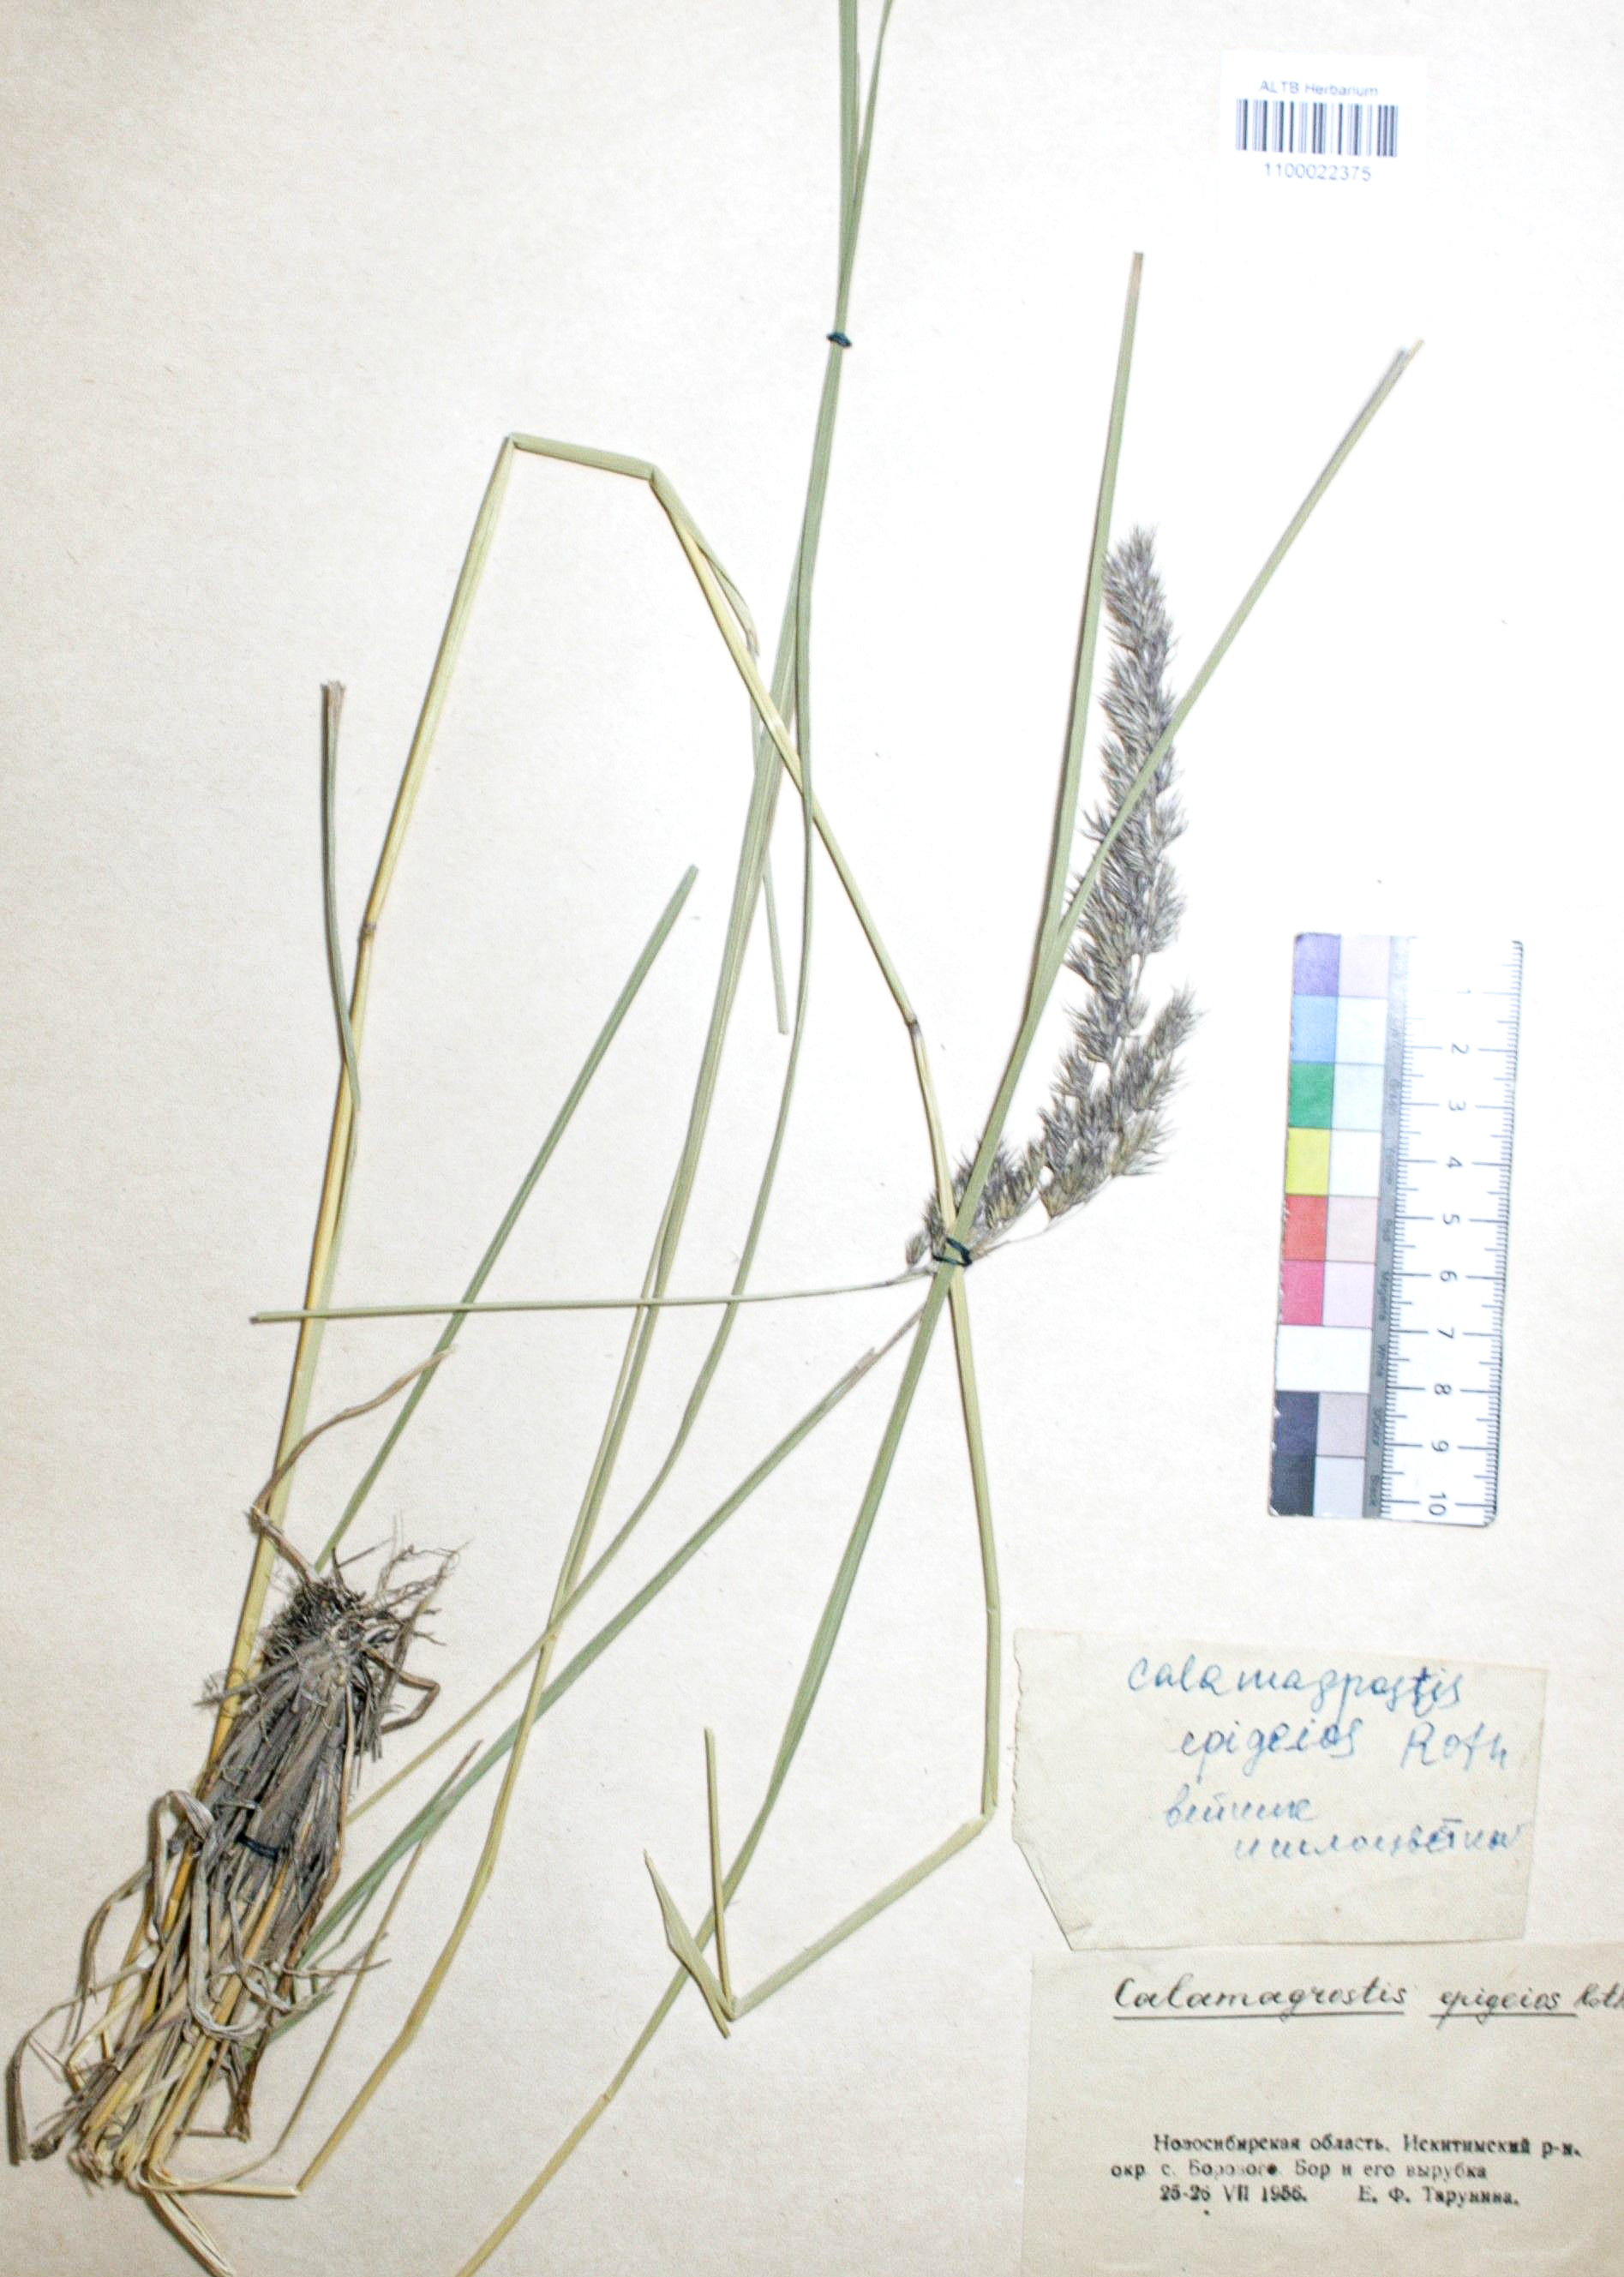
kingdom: Plantae
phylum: Tracheophyta
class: Liliopsida
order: Poales
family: Poaceae
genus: Calamagrostis
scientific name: Calamagrostis epigejos
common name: Wood small-reed
